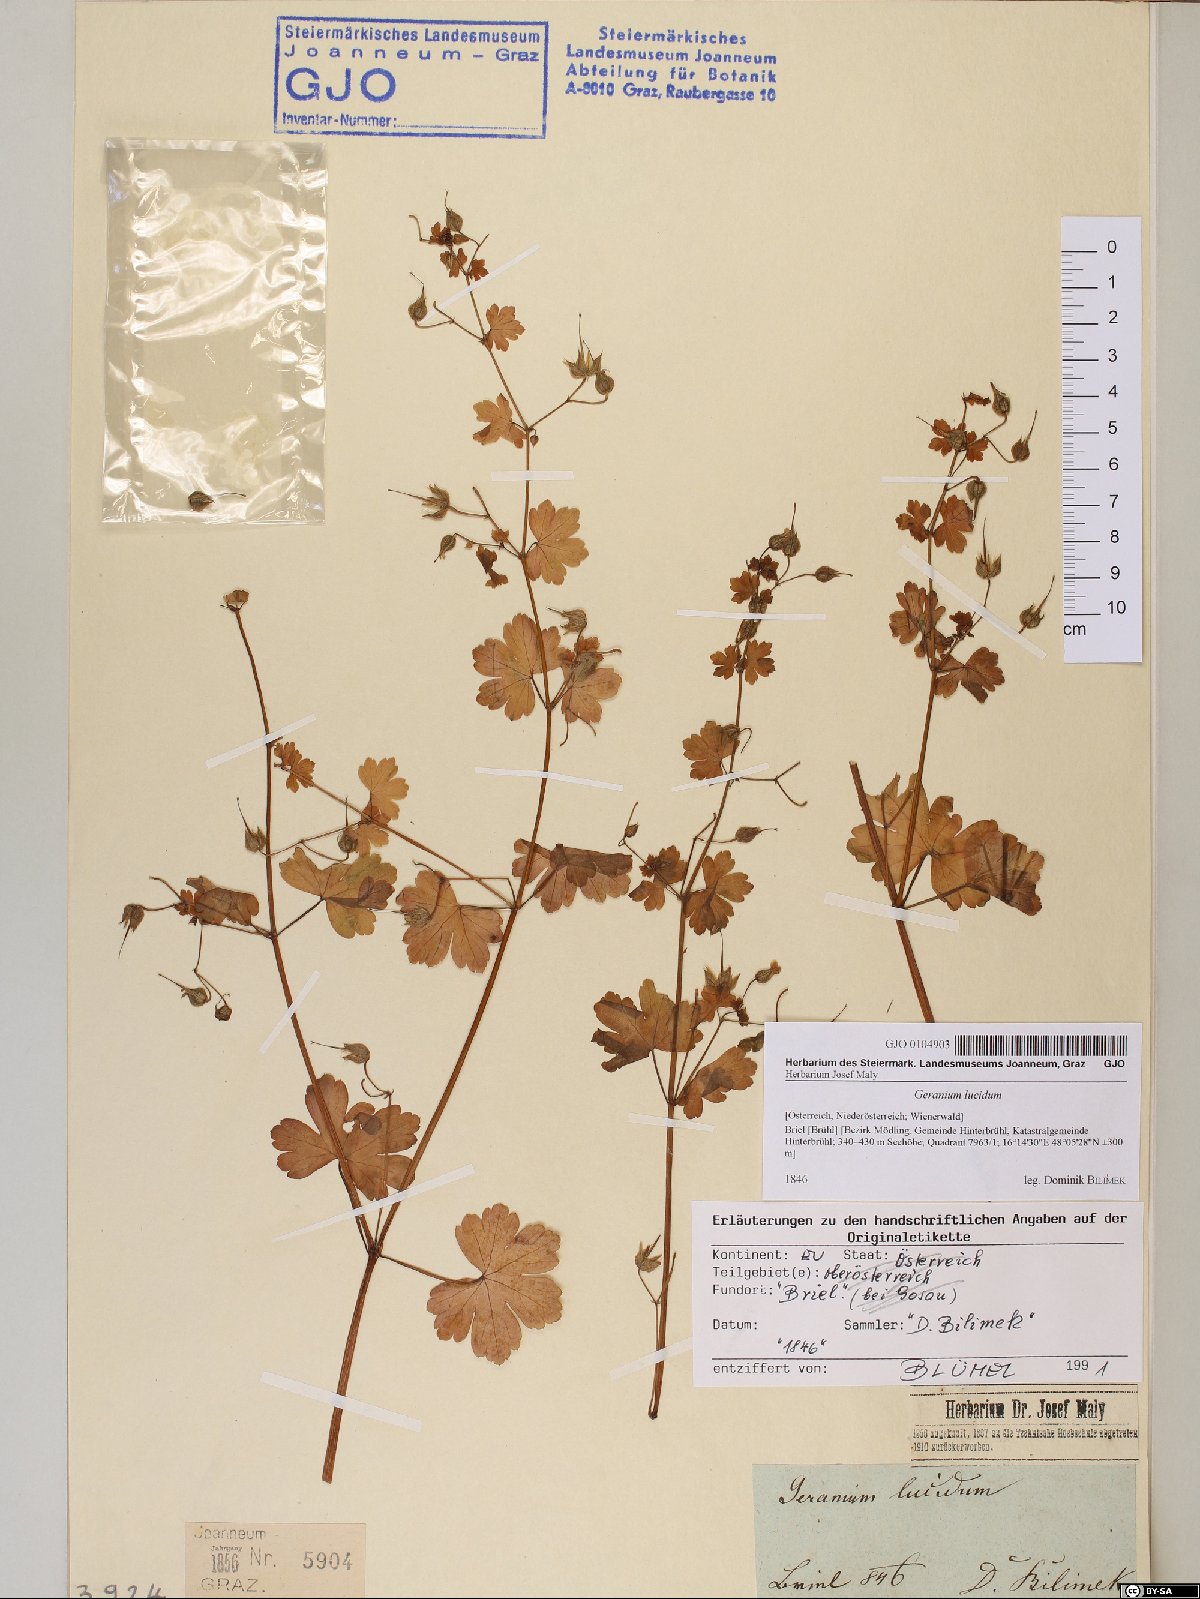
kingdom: Plantae
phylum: Tracheophyta
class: Magnoliopsida
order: Geraniales
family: Geraniaceae
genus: Geranium
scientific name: Geranium lucidum
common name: Shining crane's-bill
